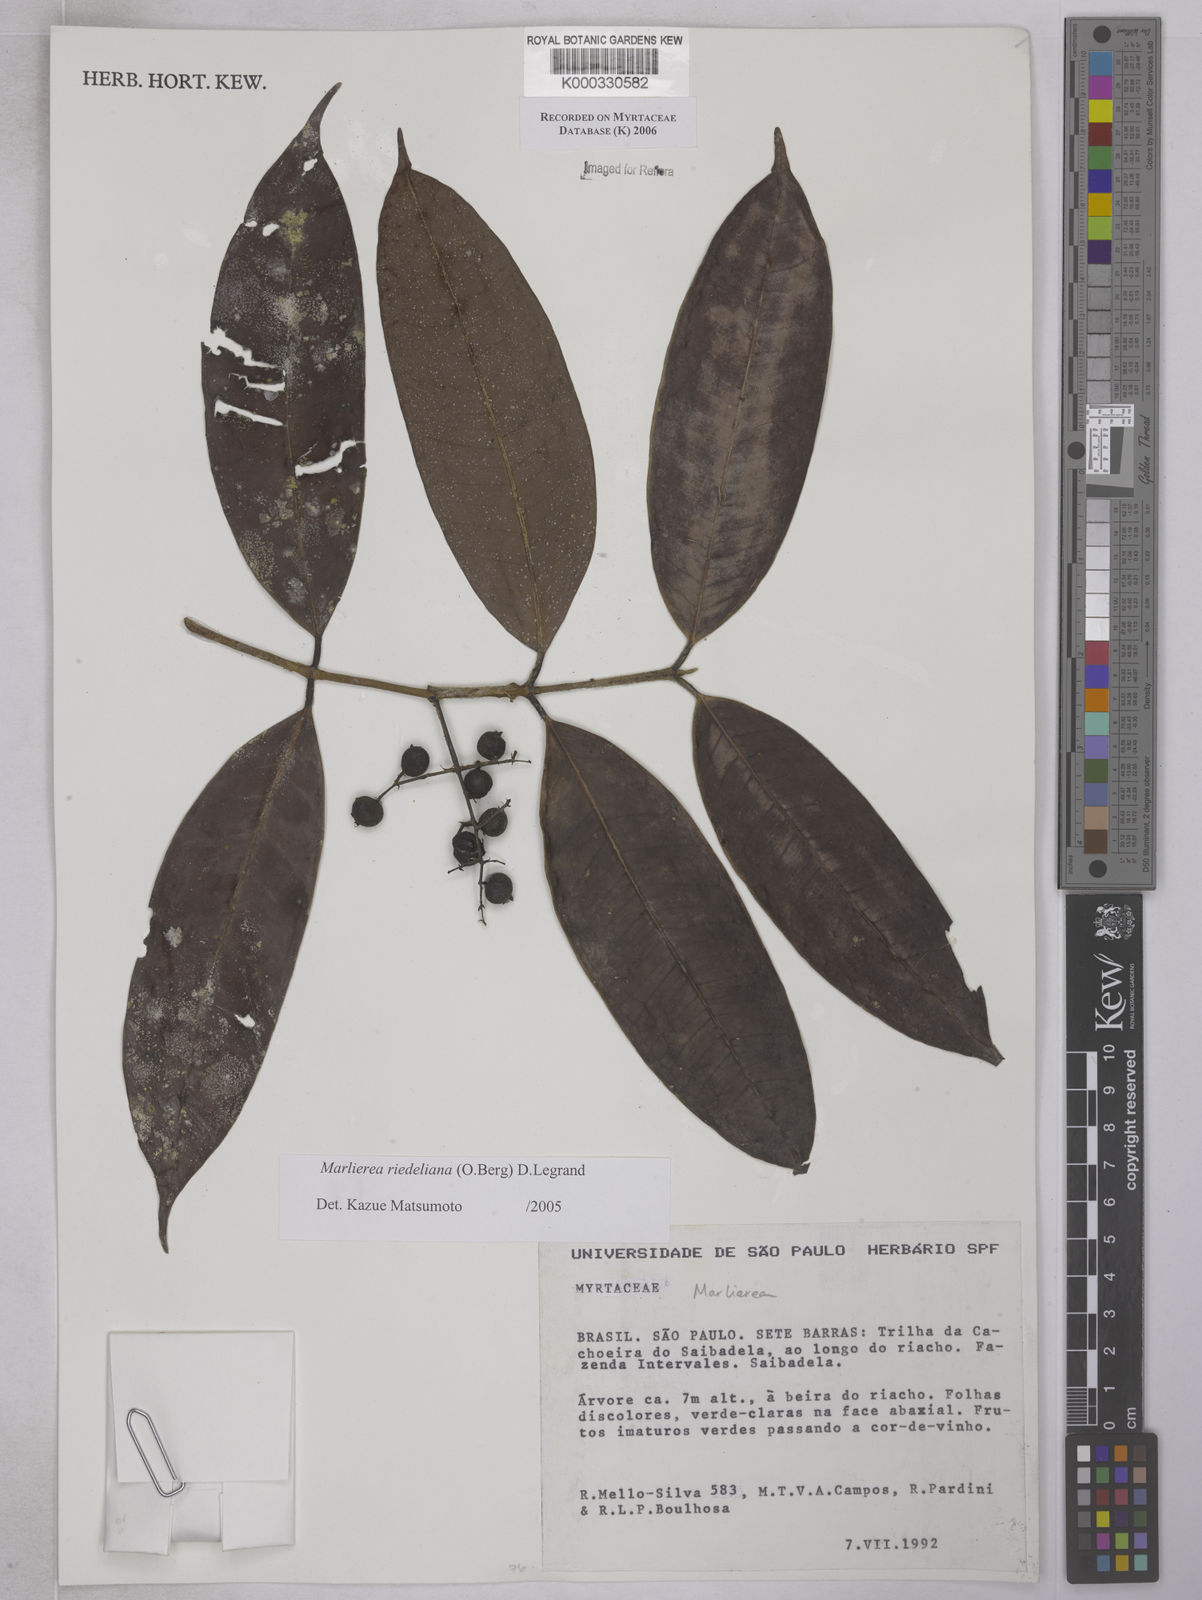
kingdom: Plantae
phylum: Tracheophyta
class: Magnoliopsida
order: Myrtales
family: Myrtaceae
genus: Myrcia
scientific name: Myrcia neoriedeliana
